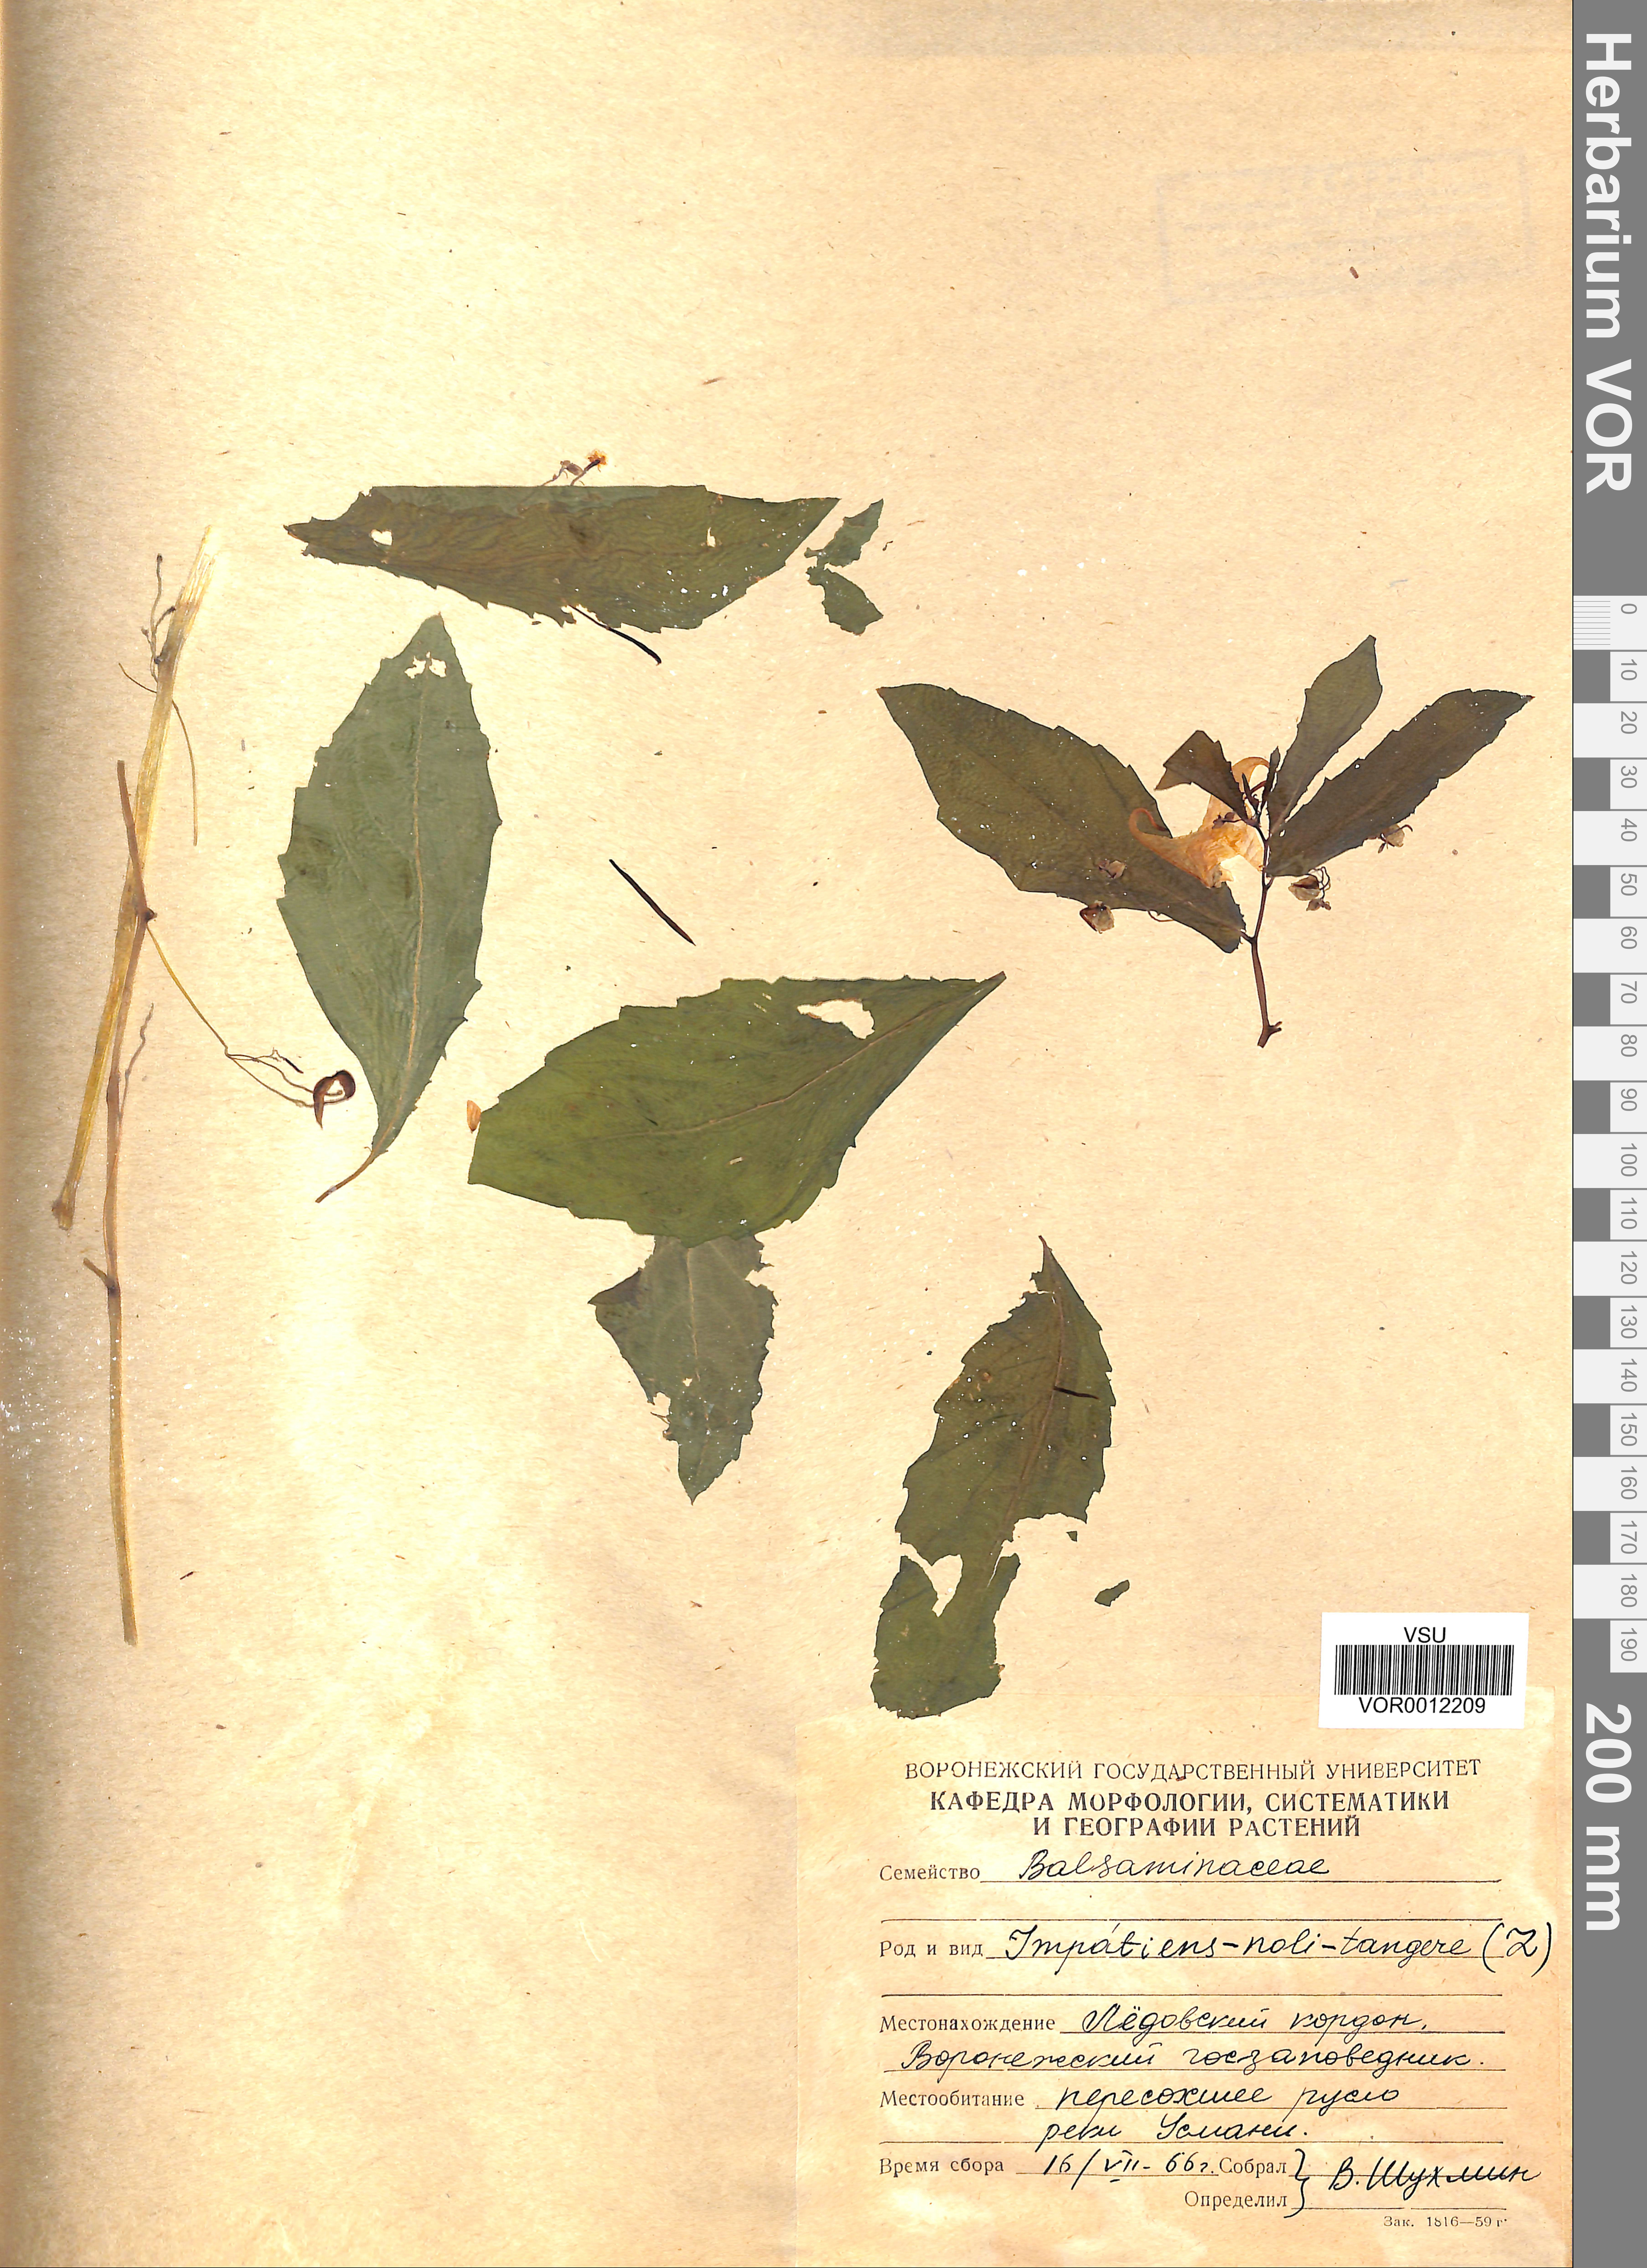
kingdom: Plantae
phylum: Tracheophyta
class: Magnoliopsida
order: Ericales
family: Balsaminaceae
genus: Impatiens
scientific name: Impatiens noli-tangere
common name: Touch-me-not balsam
